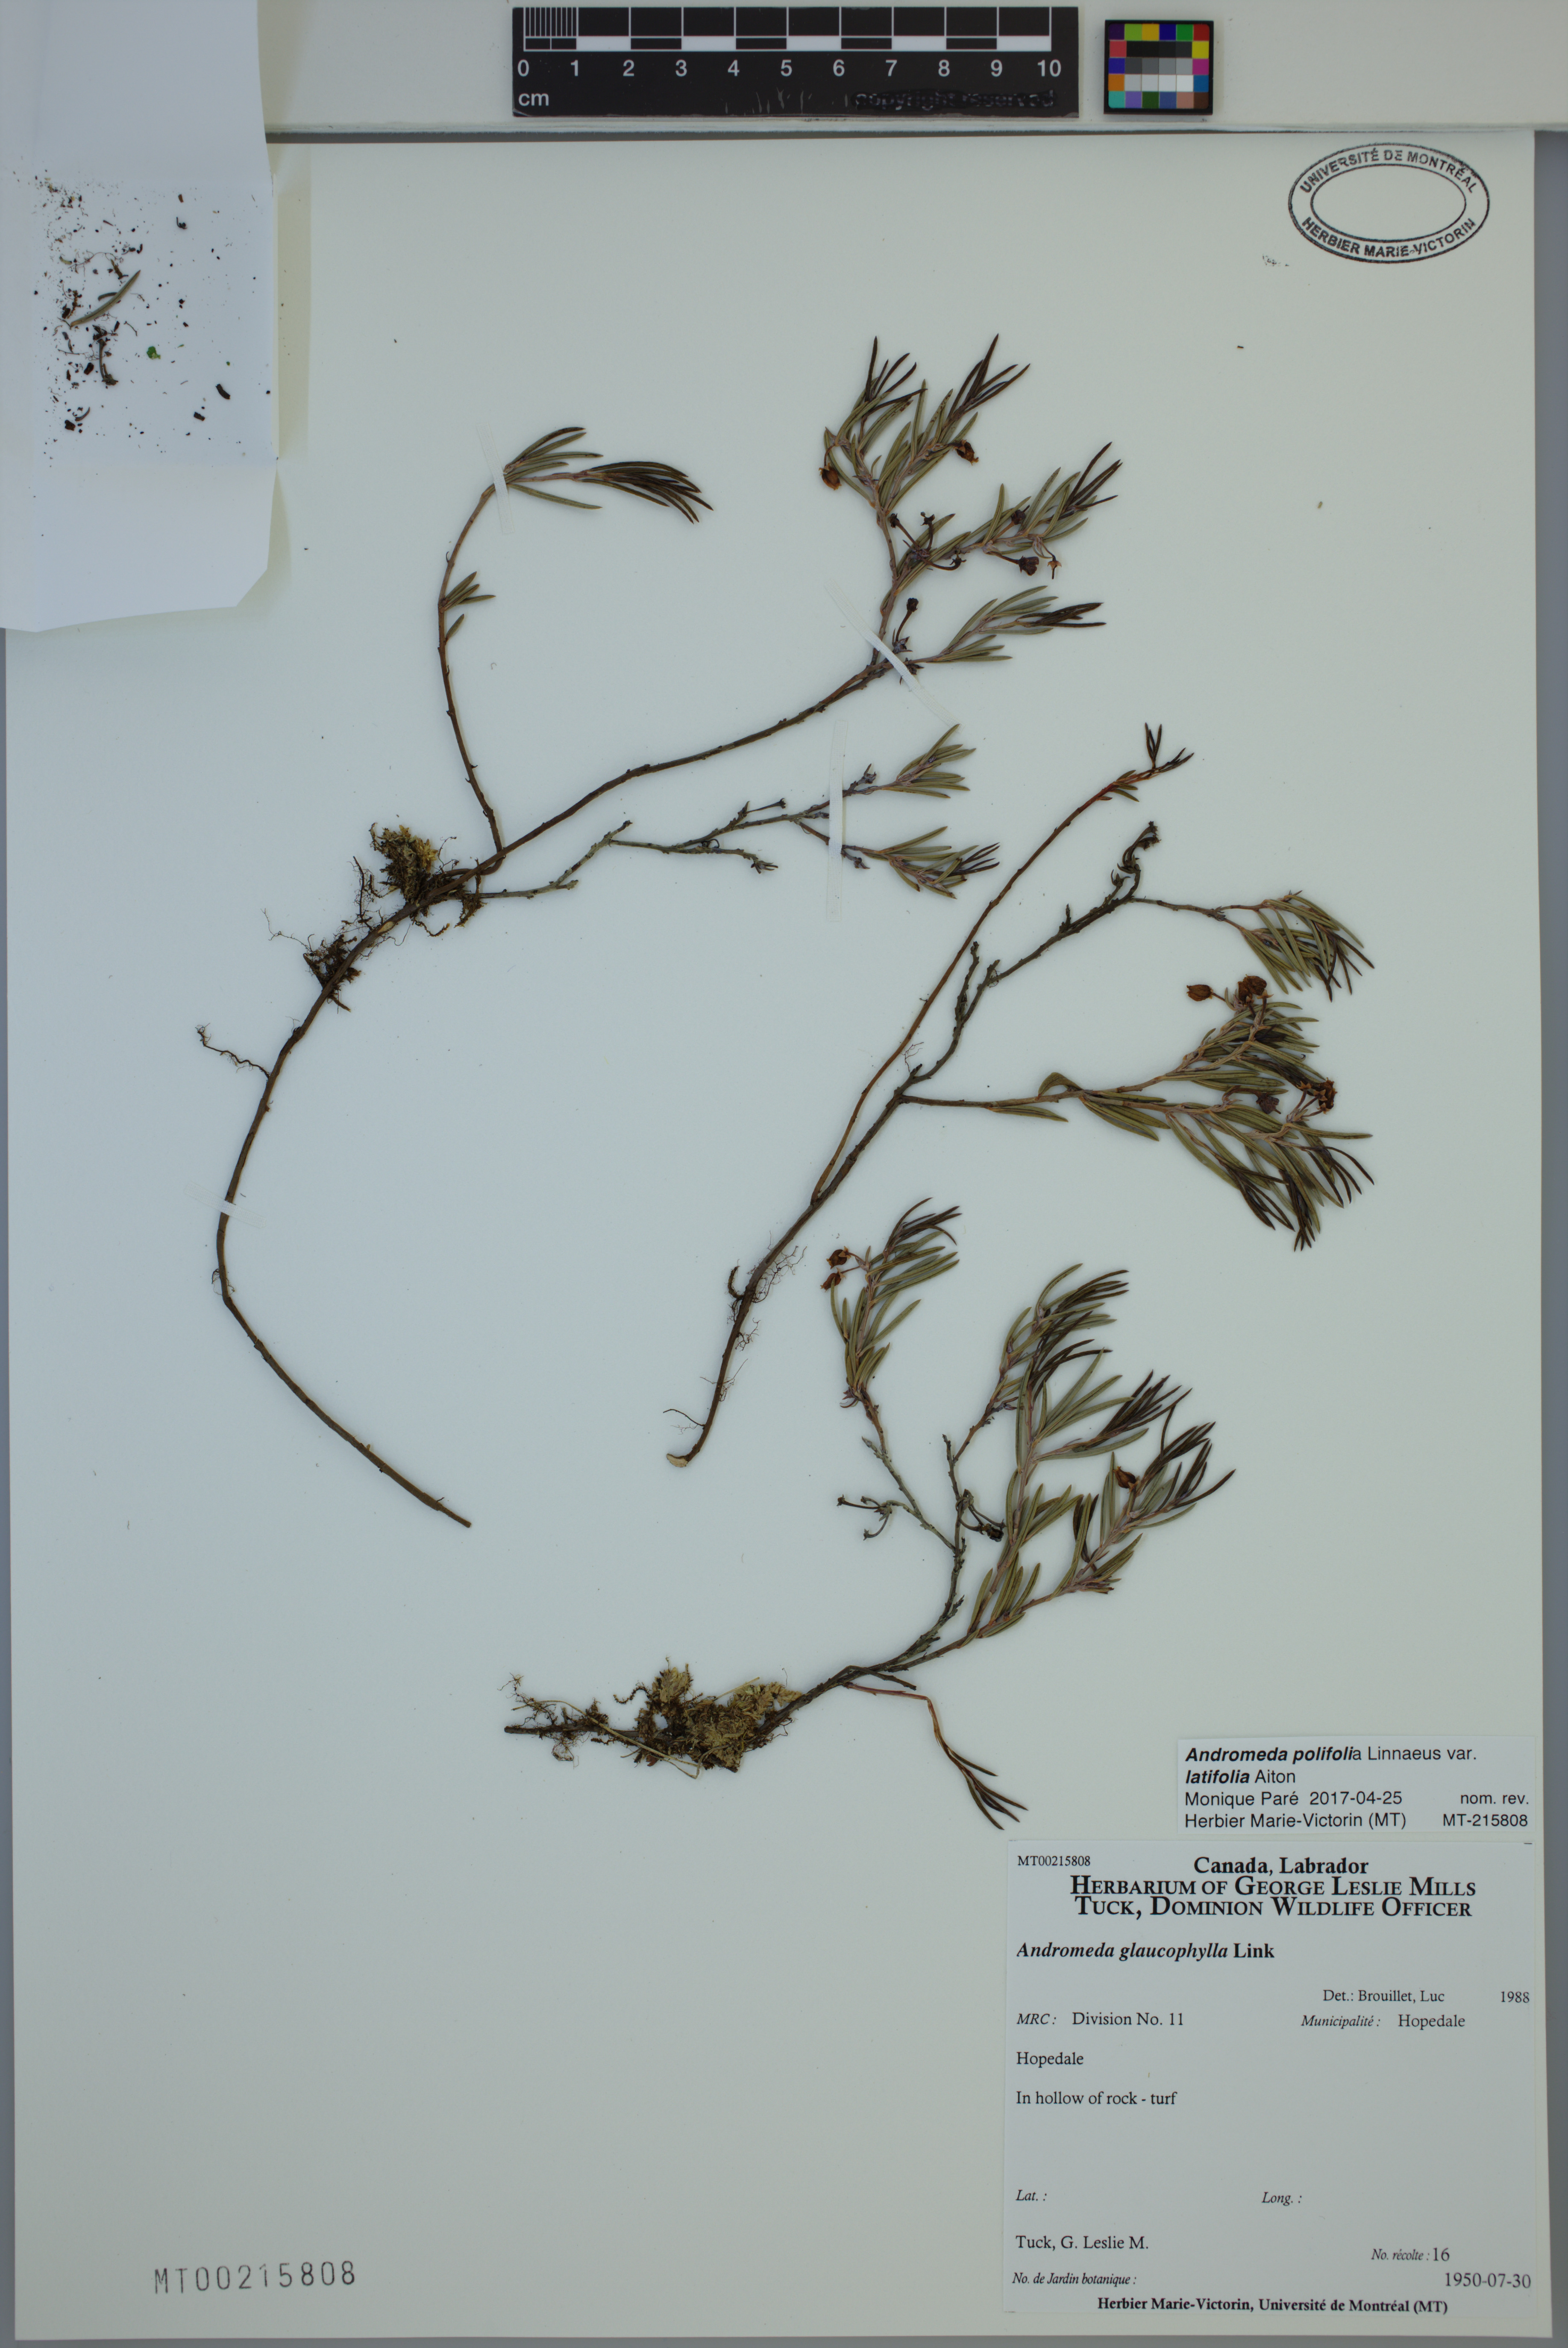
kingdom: Plantae
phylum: Tracheophyta
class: Magnoliopsida
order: Ericales
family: Ericaceae
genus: Andromeda
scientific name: Andromeda polifolia
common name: Bog-rosemary
